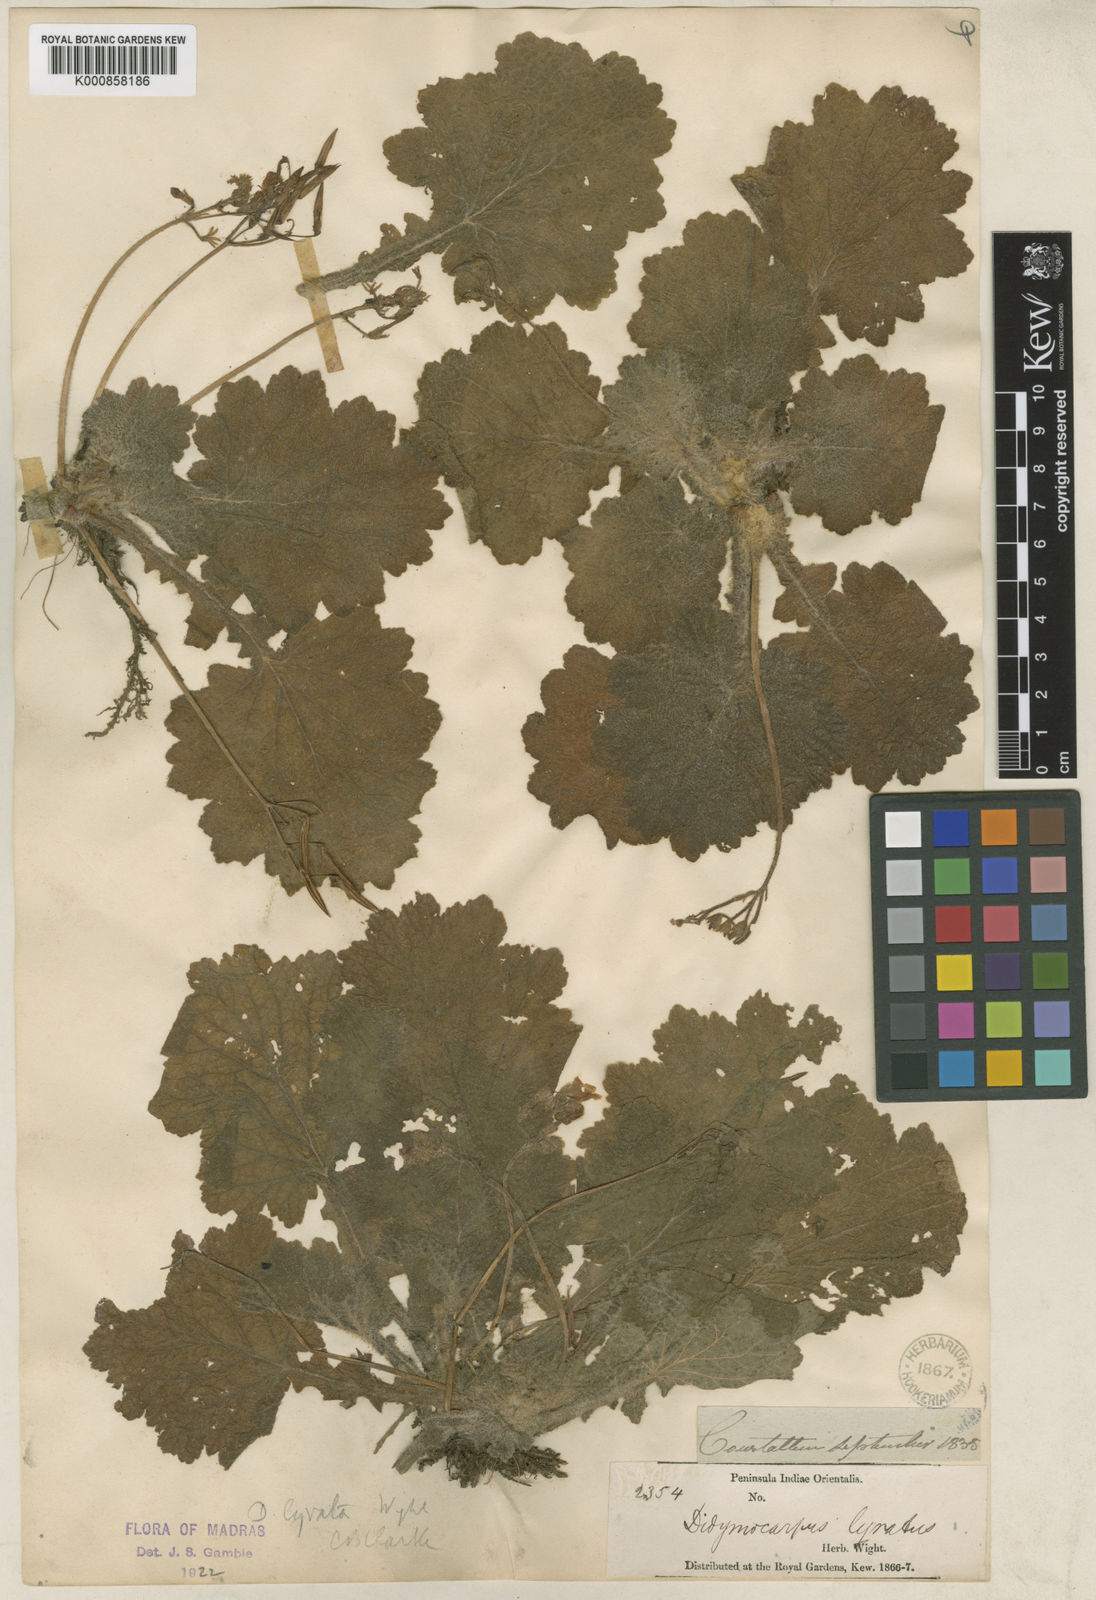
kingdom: Plantae
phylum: Tracheophyta
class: Magnoliopsida
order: Lamiales
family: Gesneriaceae
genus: Henckelia
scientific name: Henckelia lyrata
